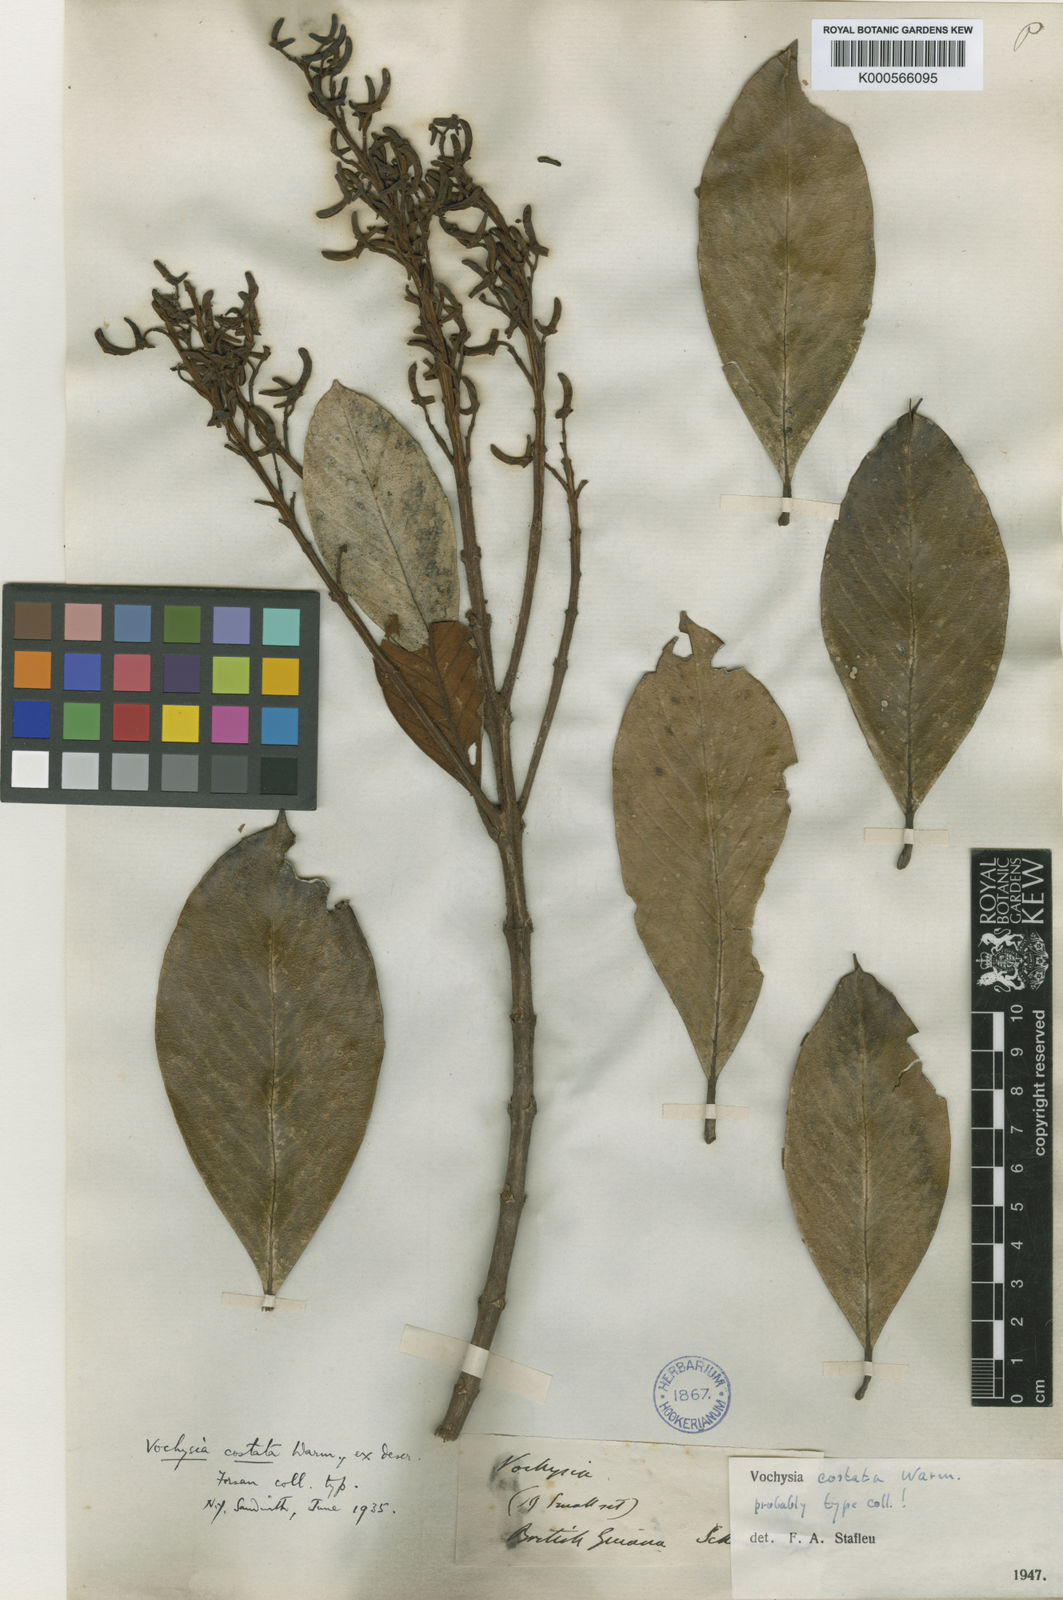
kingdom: Plantae
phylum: Tracheophyta
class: Magnoliopsida
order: Myrtales
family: Vochysiaceae
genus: Vochysia
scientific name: Vochysia costata
